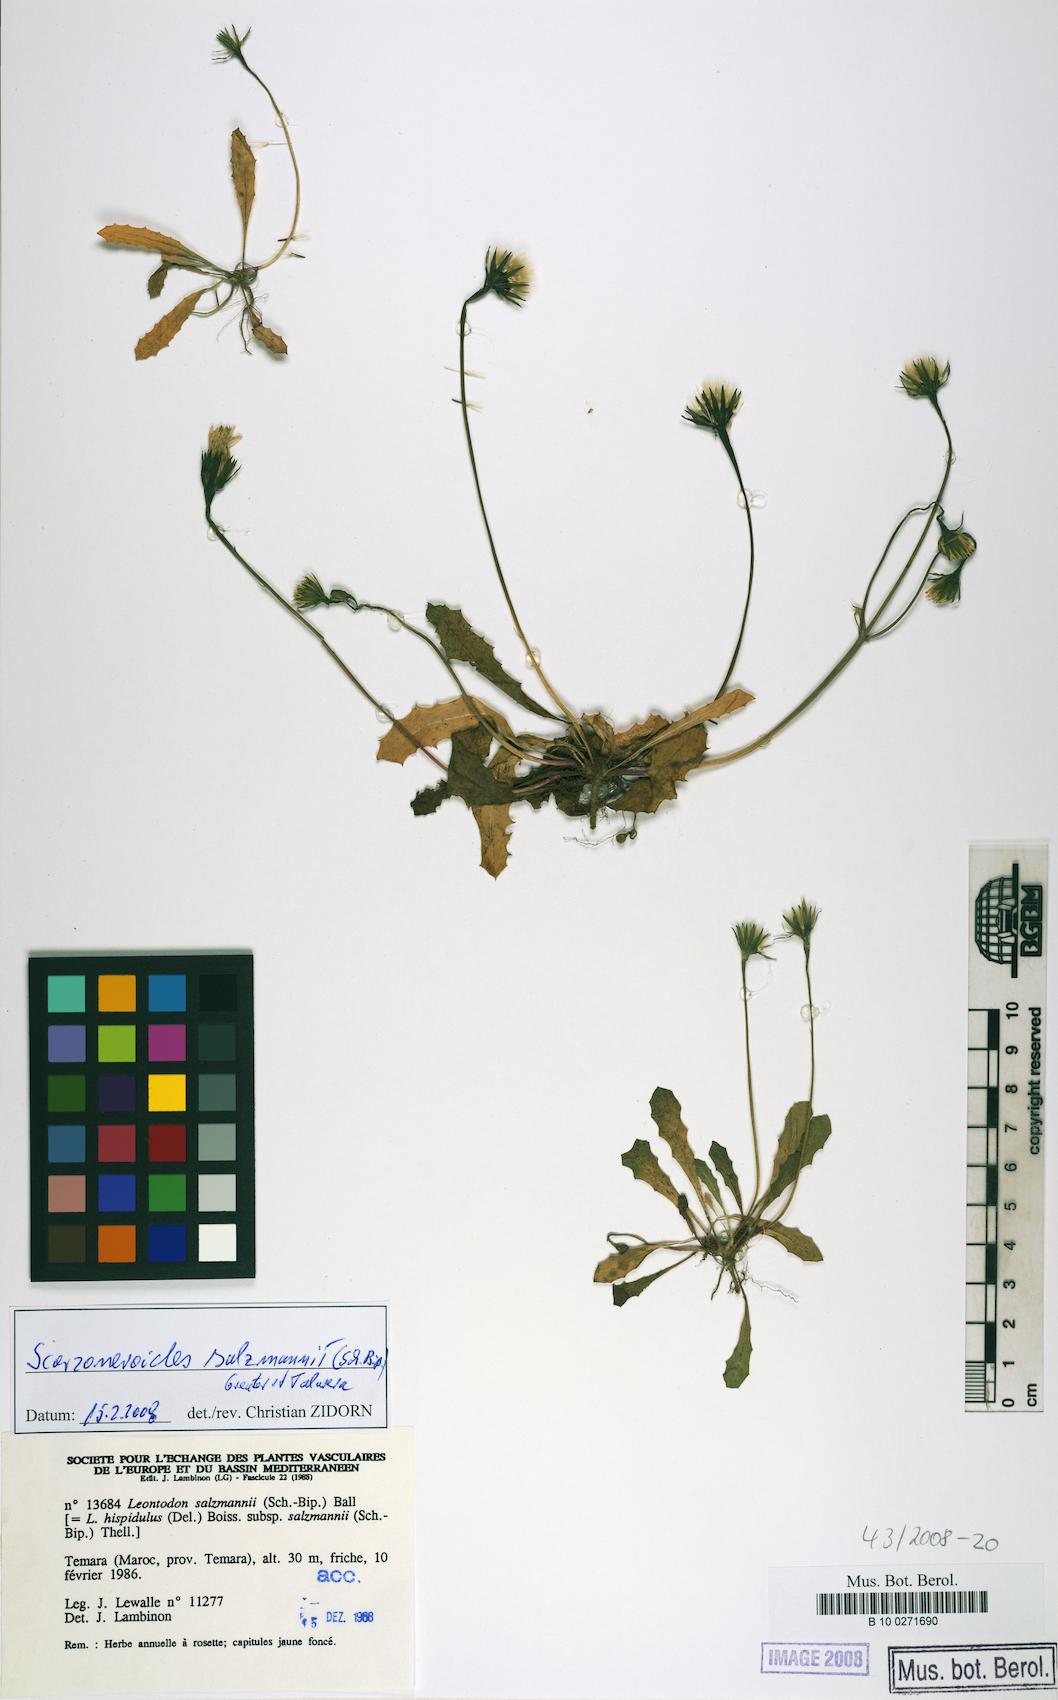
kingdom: Plantae
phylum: Tracheophyta
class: Magnoliopsida
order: Asterales
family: Asteraceae
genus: Scorzoneroides
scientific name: Scorzoneroides salzmannii
